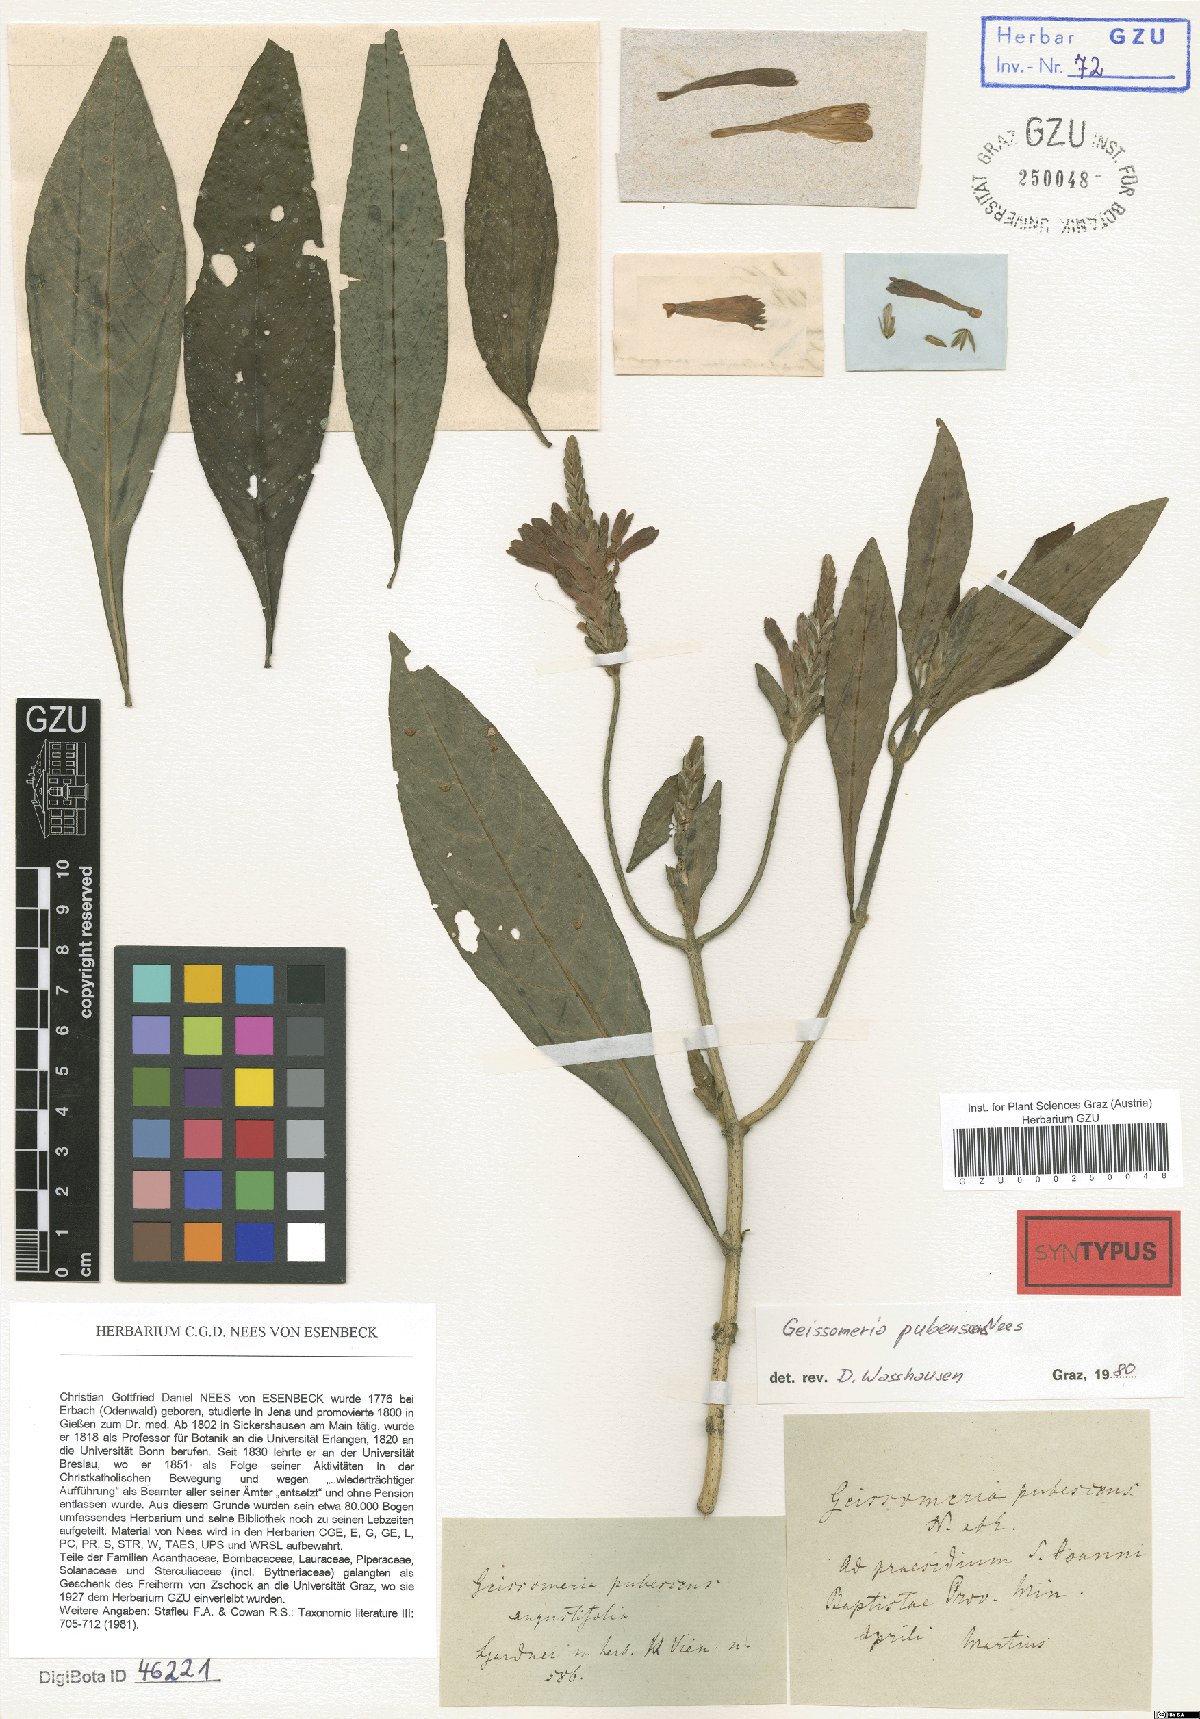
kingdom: Plantae
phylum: Tracheophyta
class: Magnoliopsida
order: Lamiales
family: Acanthaceae
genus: Aphelandra
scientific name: Aphelandra longiflora
